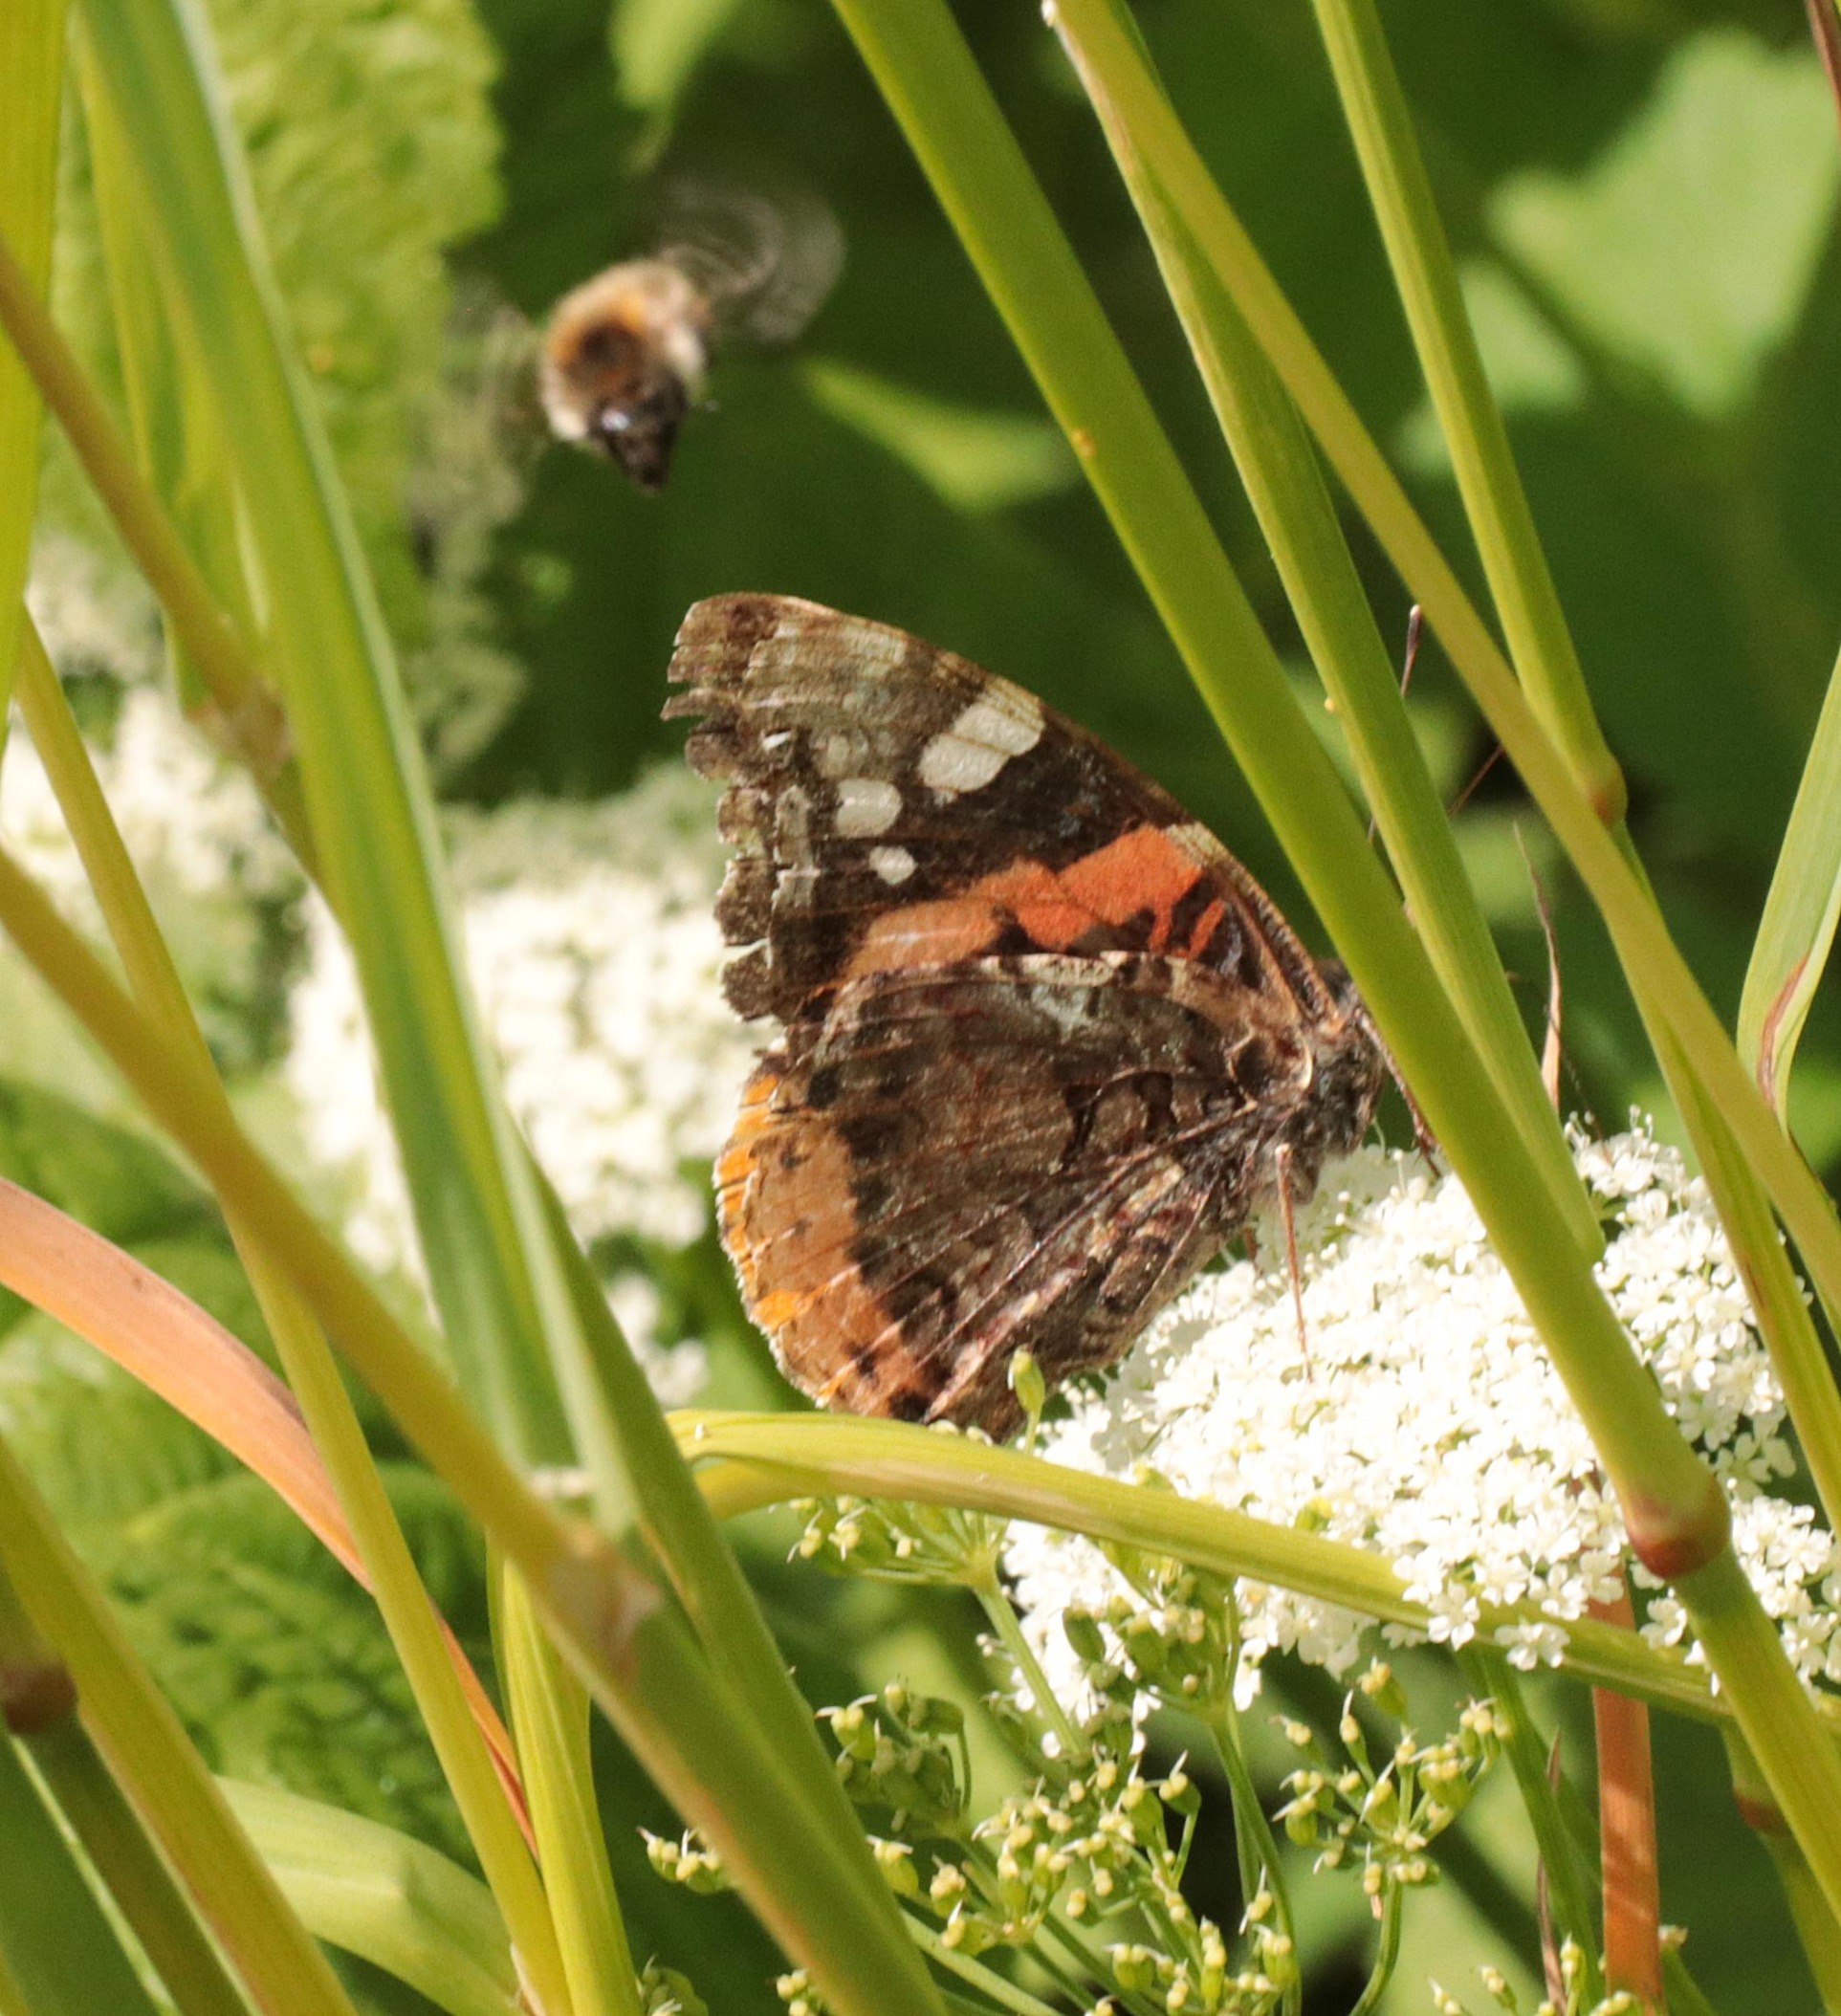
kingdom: Animalia
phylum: Arthropoda
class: Insecta
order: Lepidoptera
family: Nymphalidae
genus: Vanessa
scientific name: Vanessa atalanta
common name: Admiral
